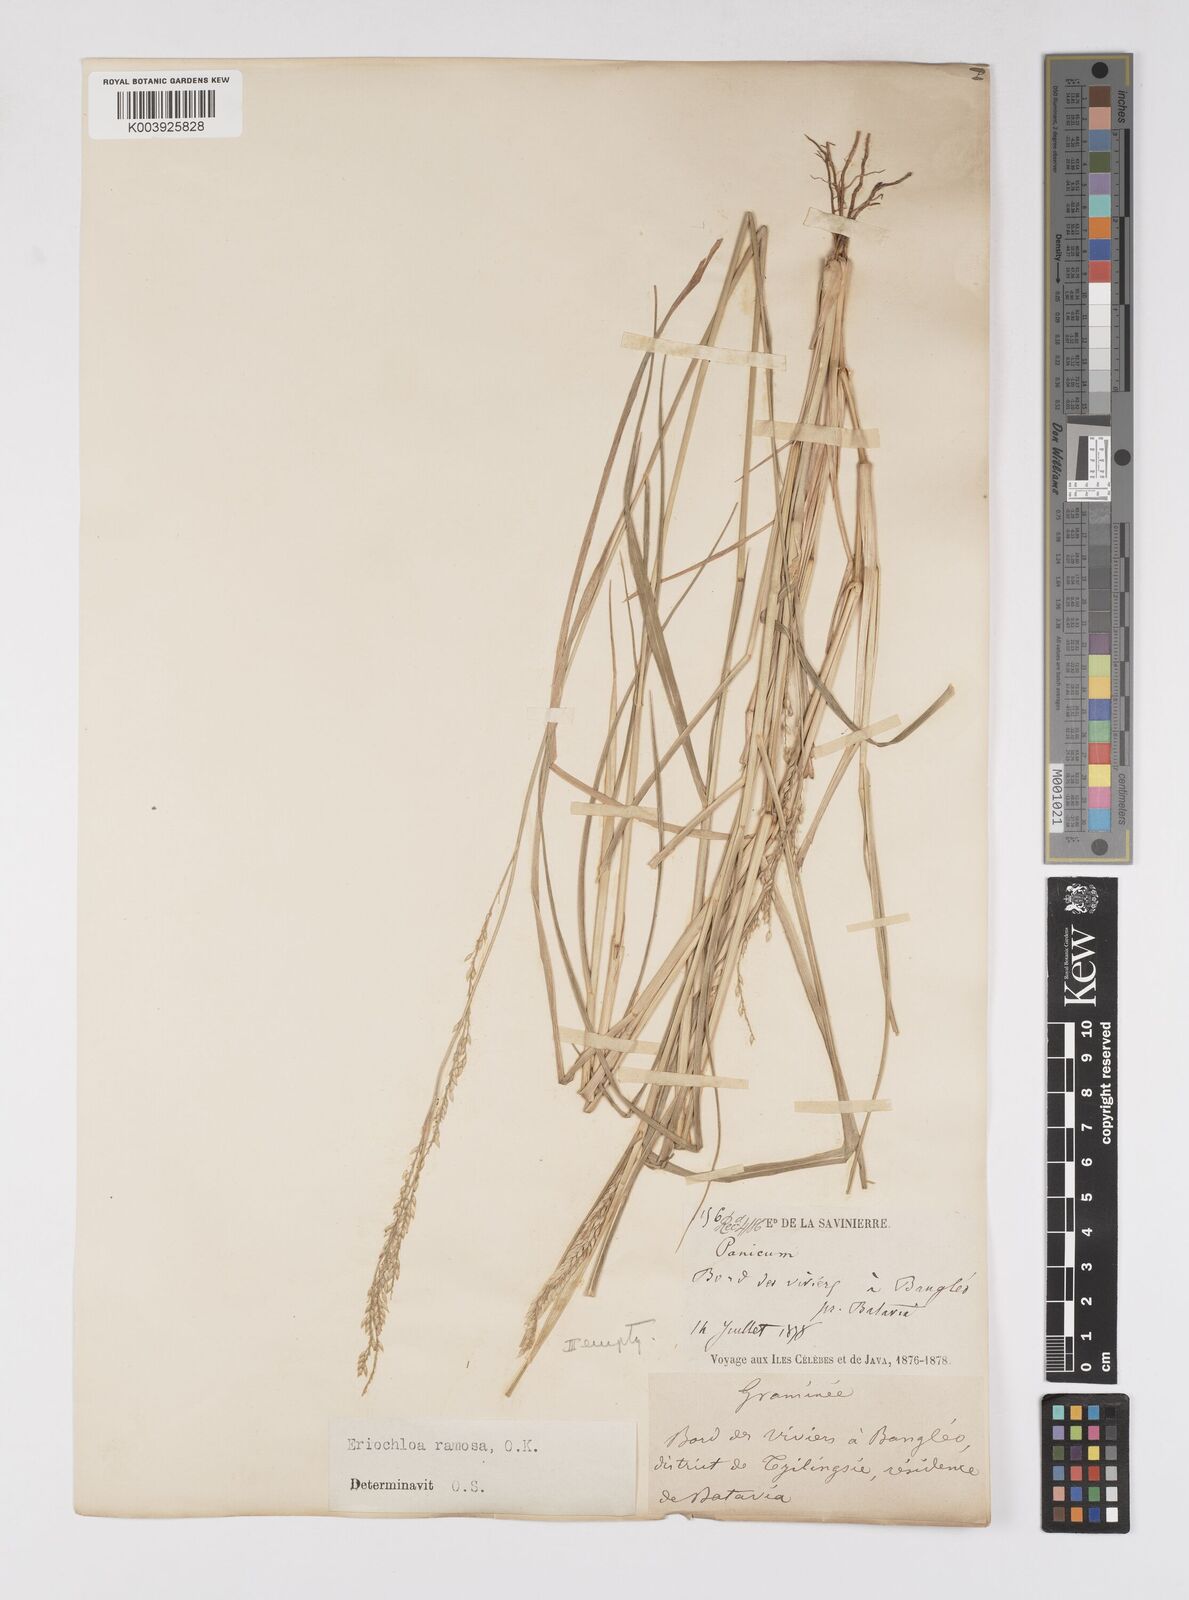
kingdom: Plantae
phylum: Tracheophyta
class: Liliopsida
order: Poales
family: Poaceae
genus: Eriochloa
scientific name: Eriochloa procera
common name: Spring grass
